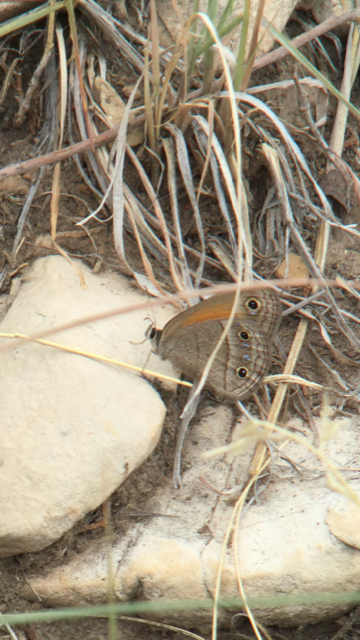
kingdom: Animalia
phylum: Arthropoda
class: Insecta
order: Lepidoptera
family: Nymphalidae
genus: Euptychia
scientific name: Euptychia rubricata
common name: Red Satyr
